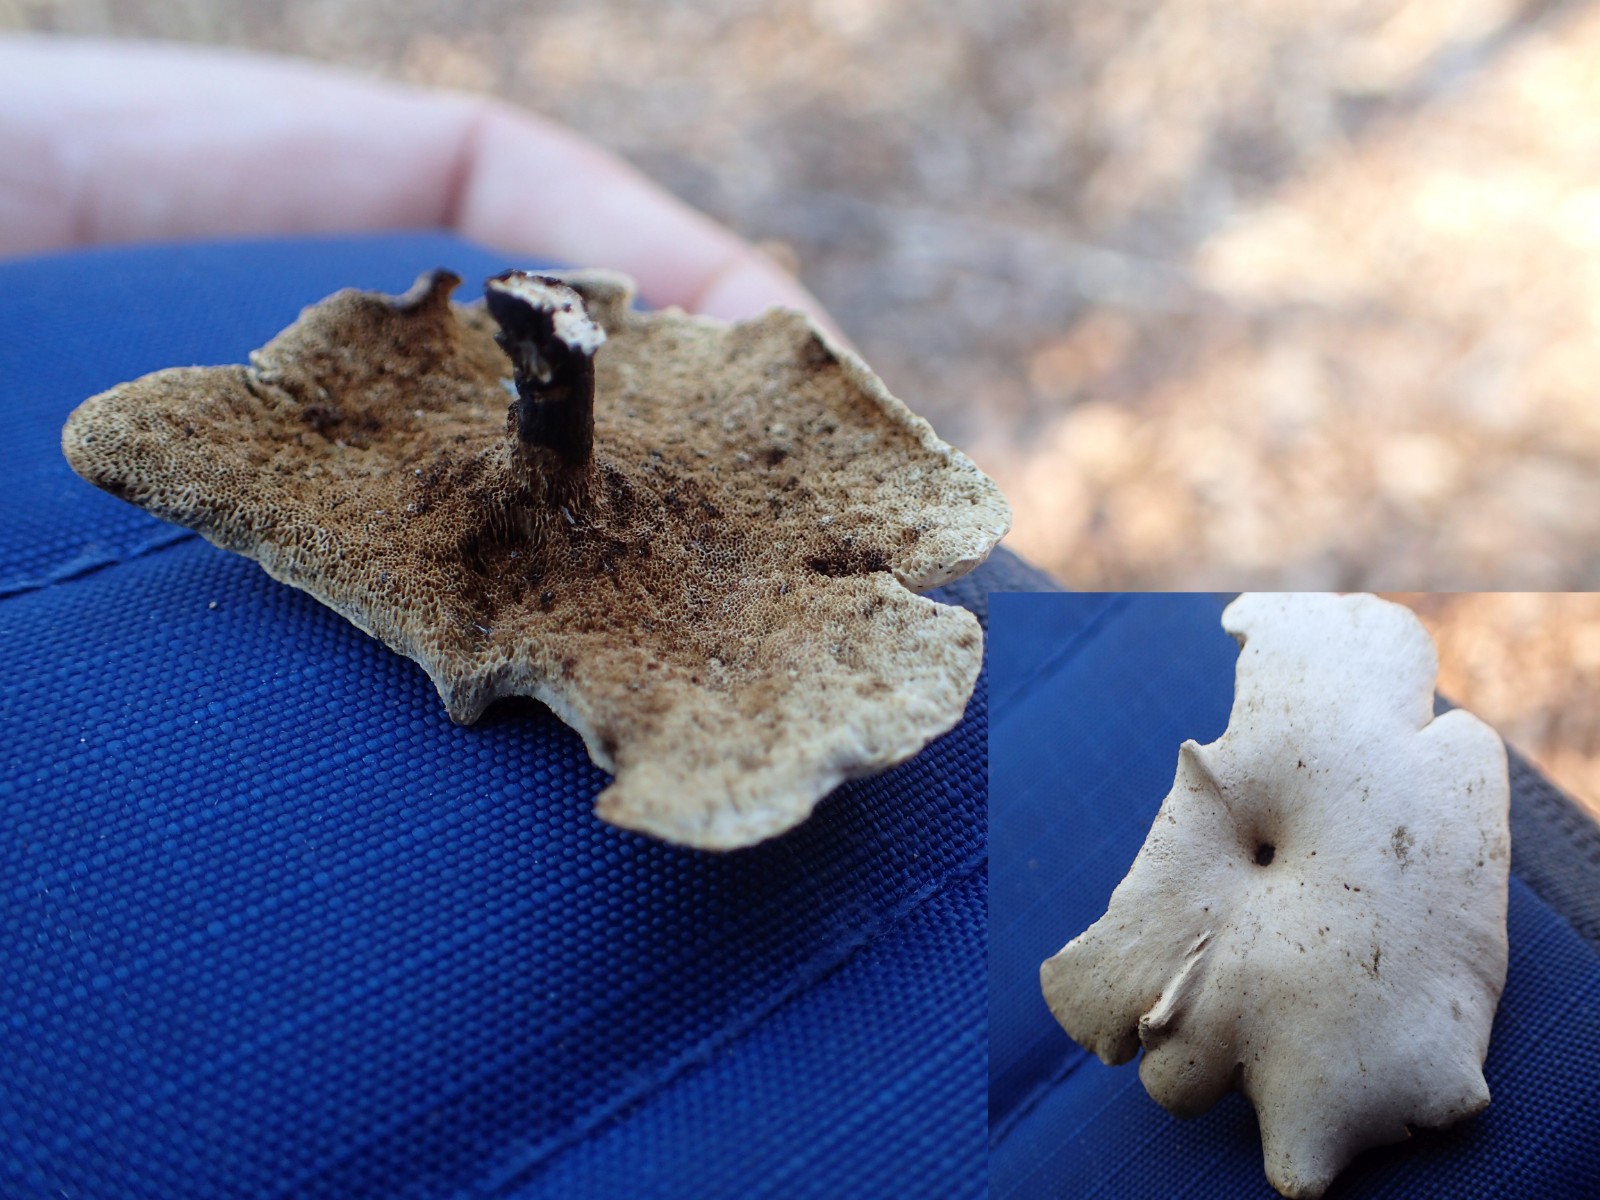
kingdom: Fungi
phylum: Basidiomycota
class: Agaricomycetes
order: Polyporales
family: Polyporaceae
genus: Cerioporus
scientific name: Cerioporus varius
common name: foranderlig stilkporesvamp
